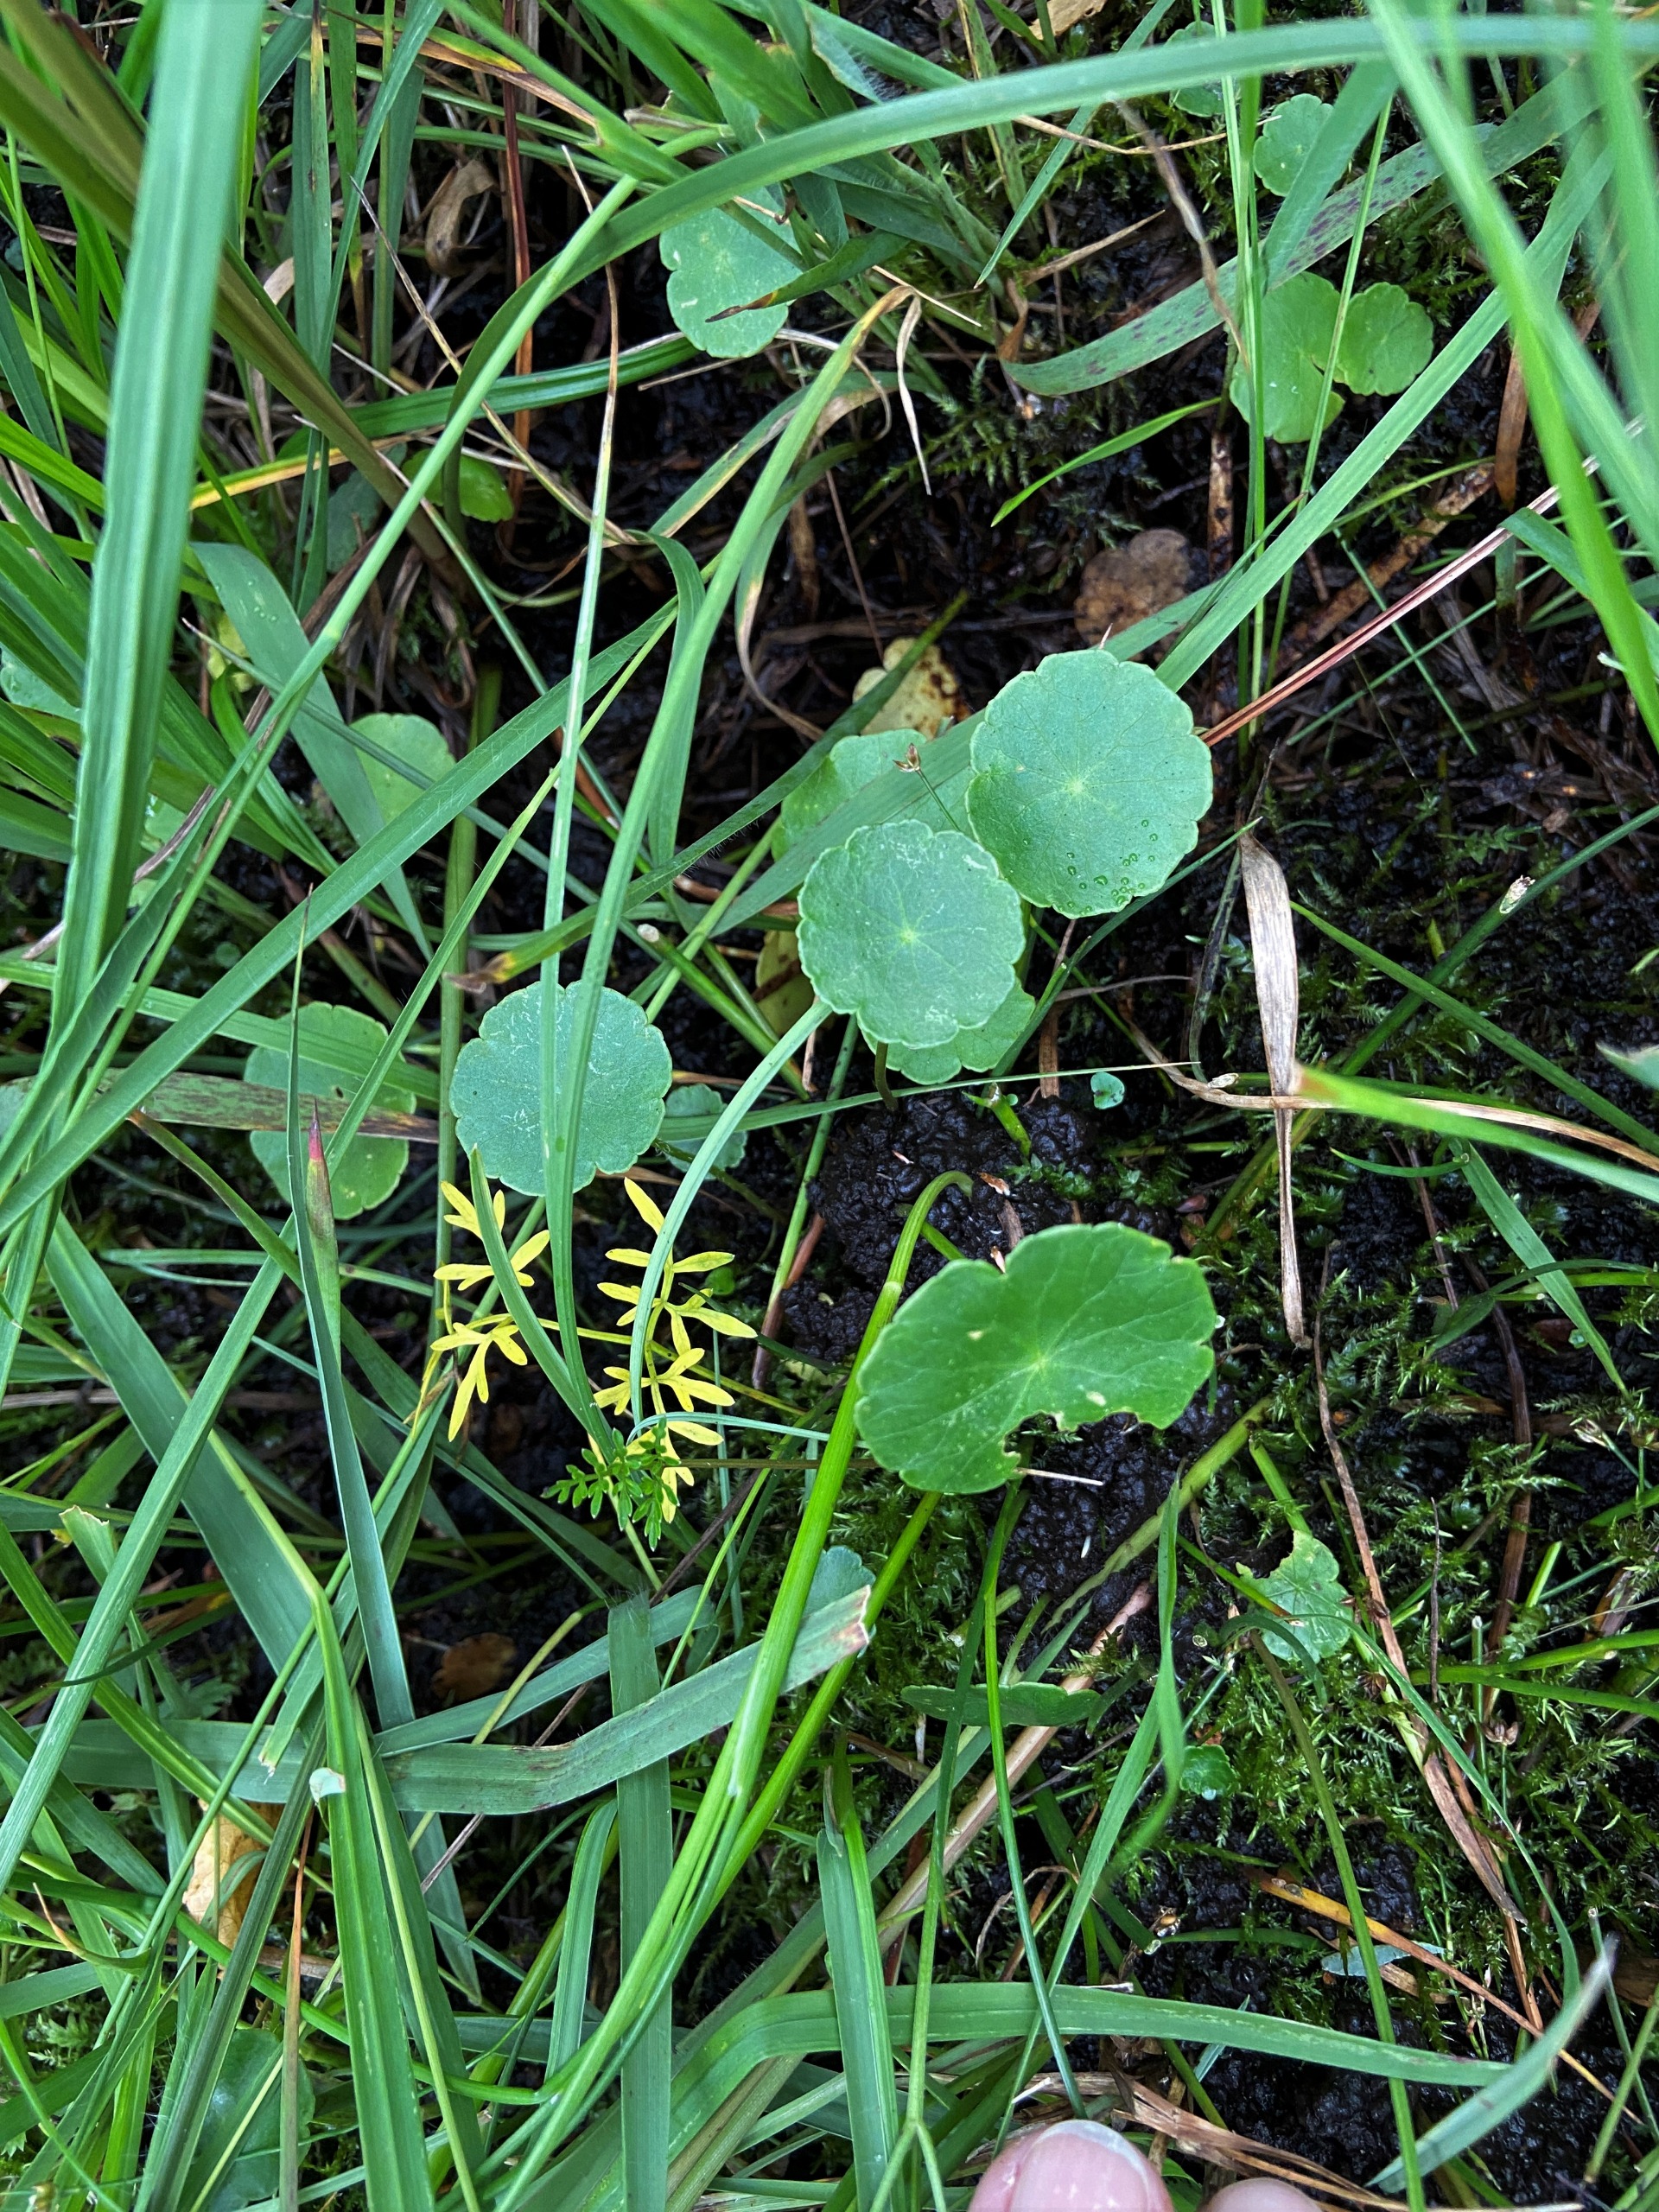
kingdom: Plantae
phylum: Tracheophyta
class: Magnoliopsida
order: Apiales
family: Araliaceae
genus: Hydrocotyle
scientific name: Hydrocotyle vulgaris
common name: Vandnavle
